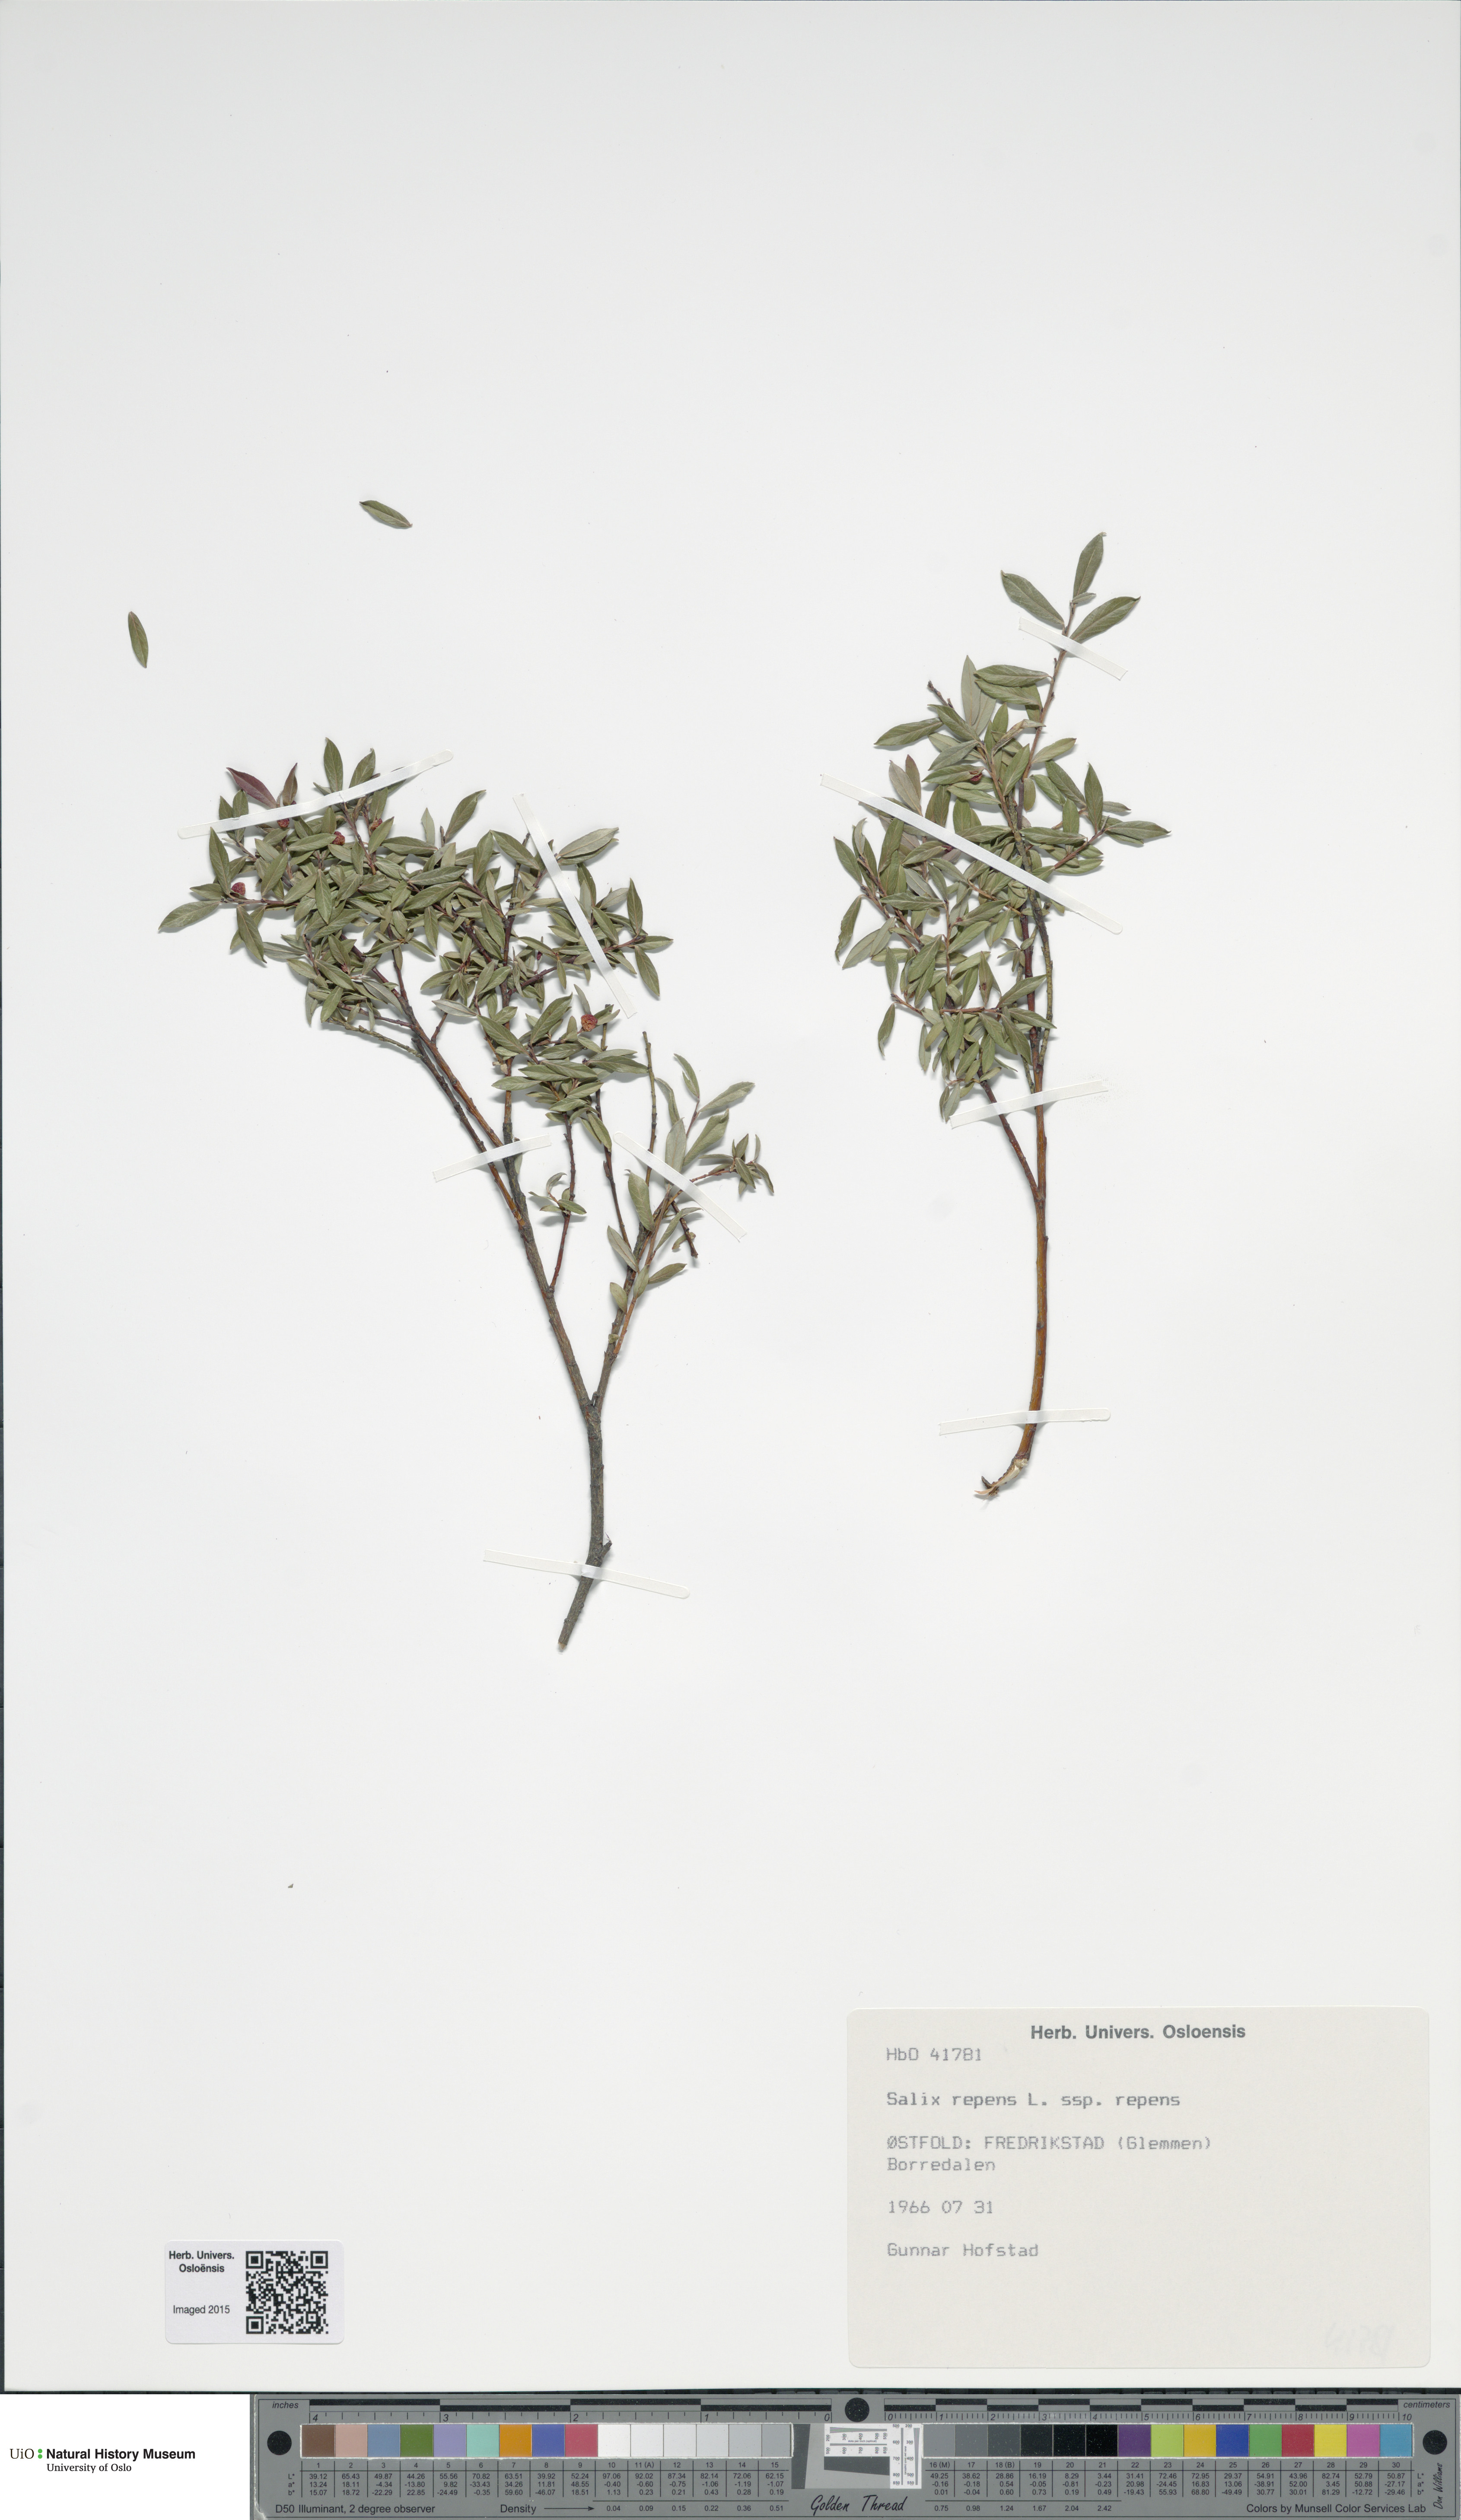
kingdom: Plantae
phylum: Tracheophyta
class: Magnoliopsida
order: Malpighiales
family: Salicaceae
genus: Salix
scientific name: Salix repens
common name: Creeping willow
